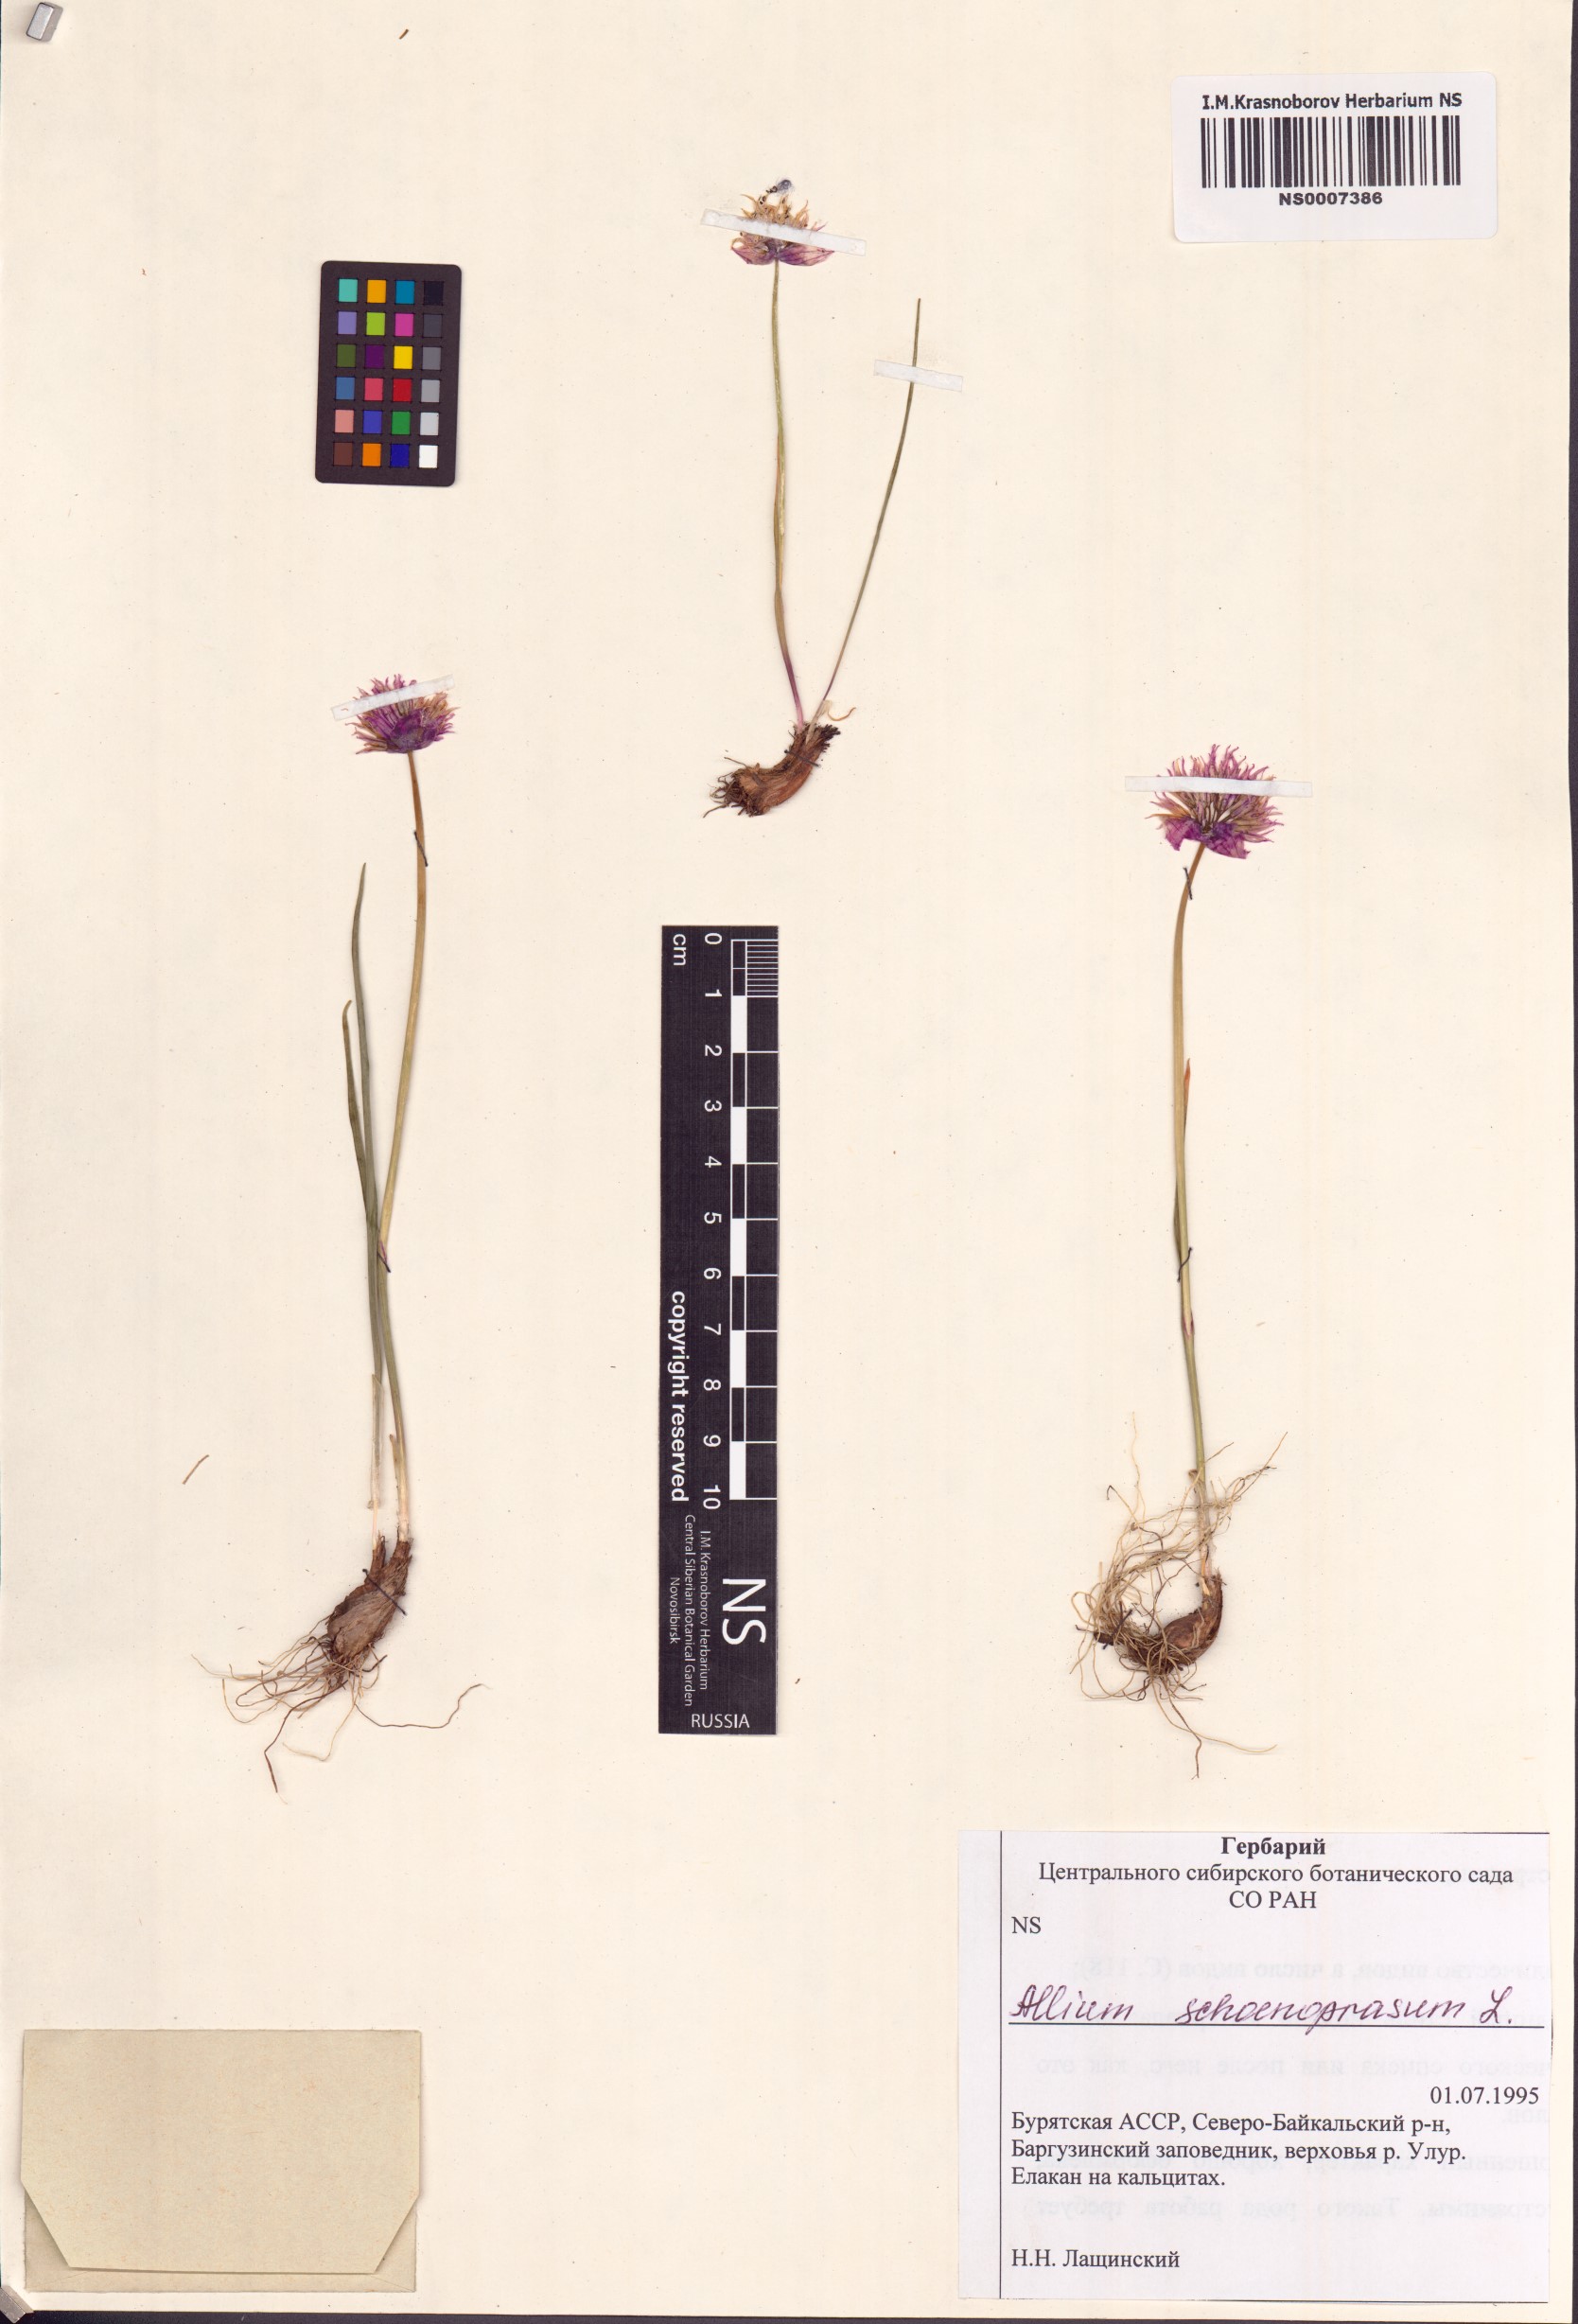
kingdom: Plantae
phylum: Tracheophyta
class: Liliopsida
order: Asparagales
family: Amaryllidaceae
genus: Allium
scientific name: Allium schoenoprasum
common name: Chives
